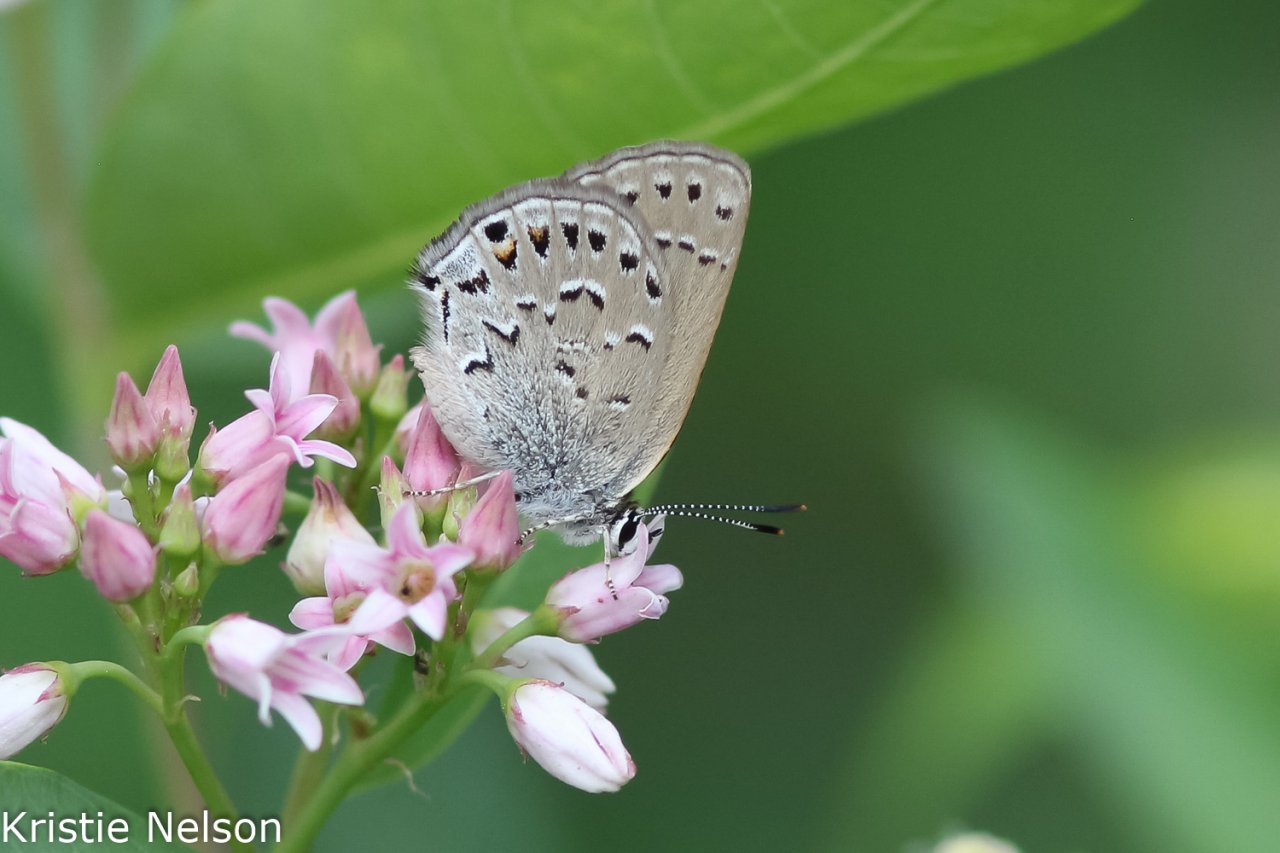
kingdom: Animalia
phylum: Arthropoda
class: Insecta
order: Lepidoptera
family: Lycaenidae
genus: Satyrium
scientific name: Satyrium behrii
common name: Behr's Hairstreak
